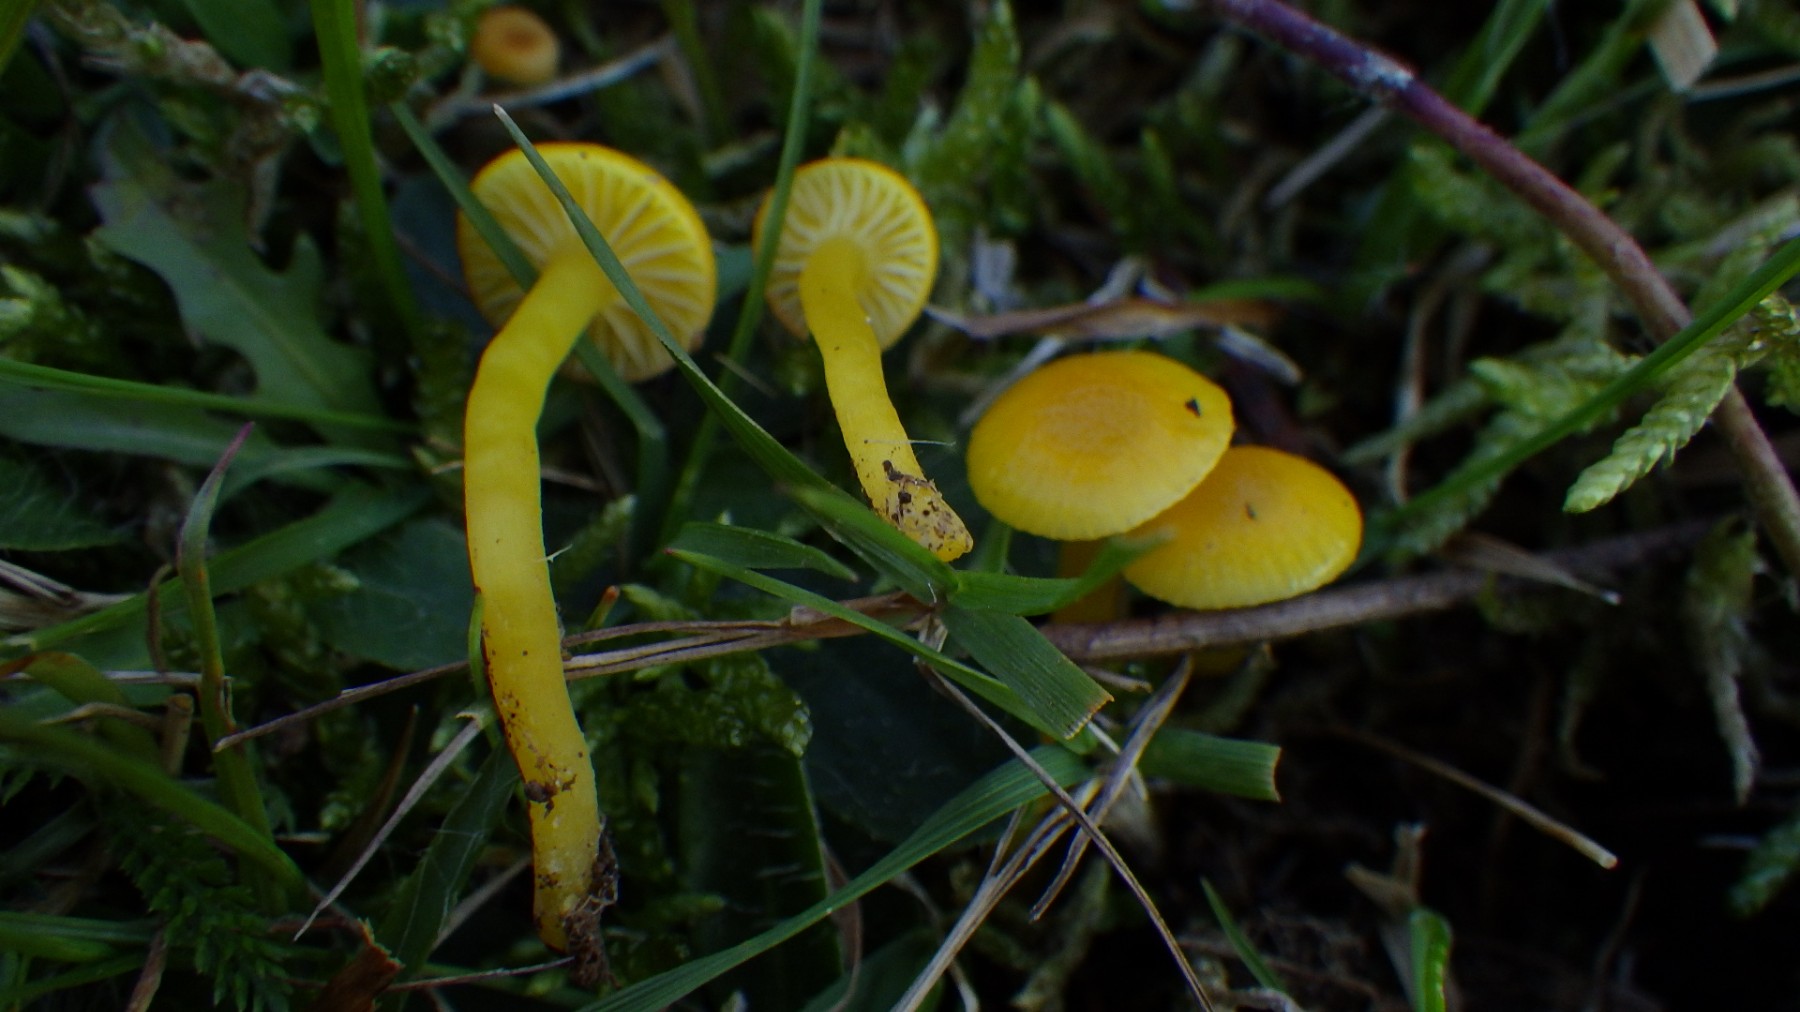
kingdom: Fungi
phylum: Basidiomycota
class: Agaricomycetes
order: Agaricales
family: Hygrophoraceae
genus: Hygrocybe
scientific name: Hygrocybe ceracea
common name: voksgul vokshat
